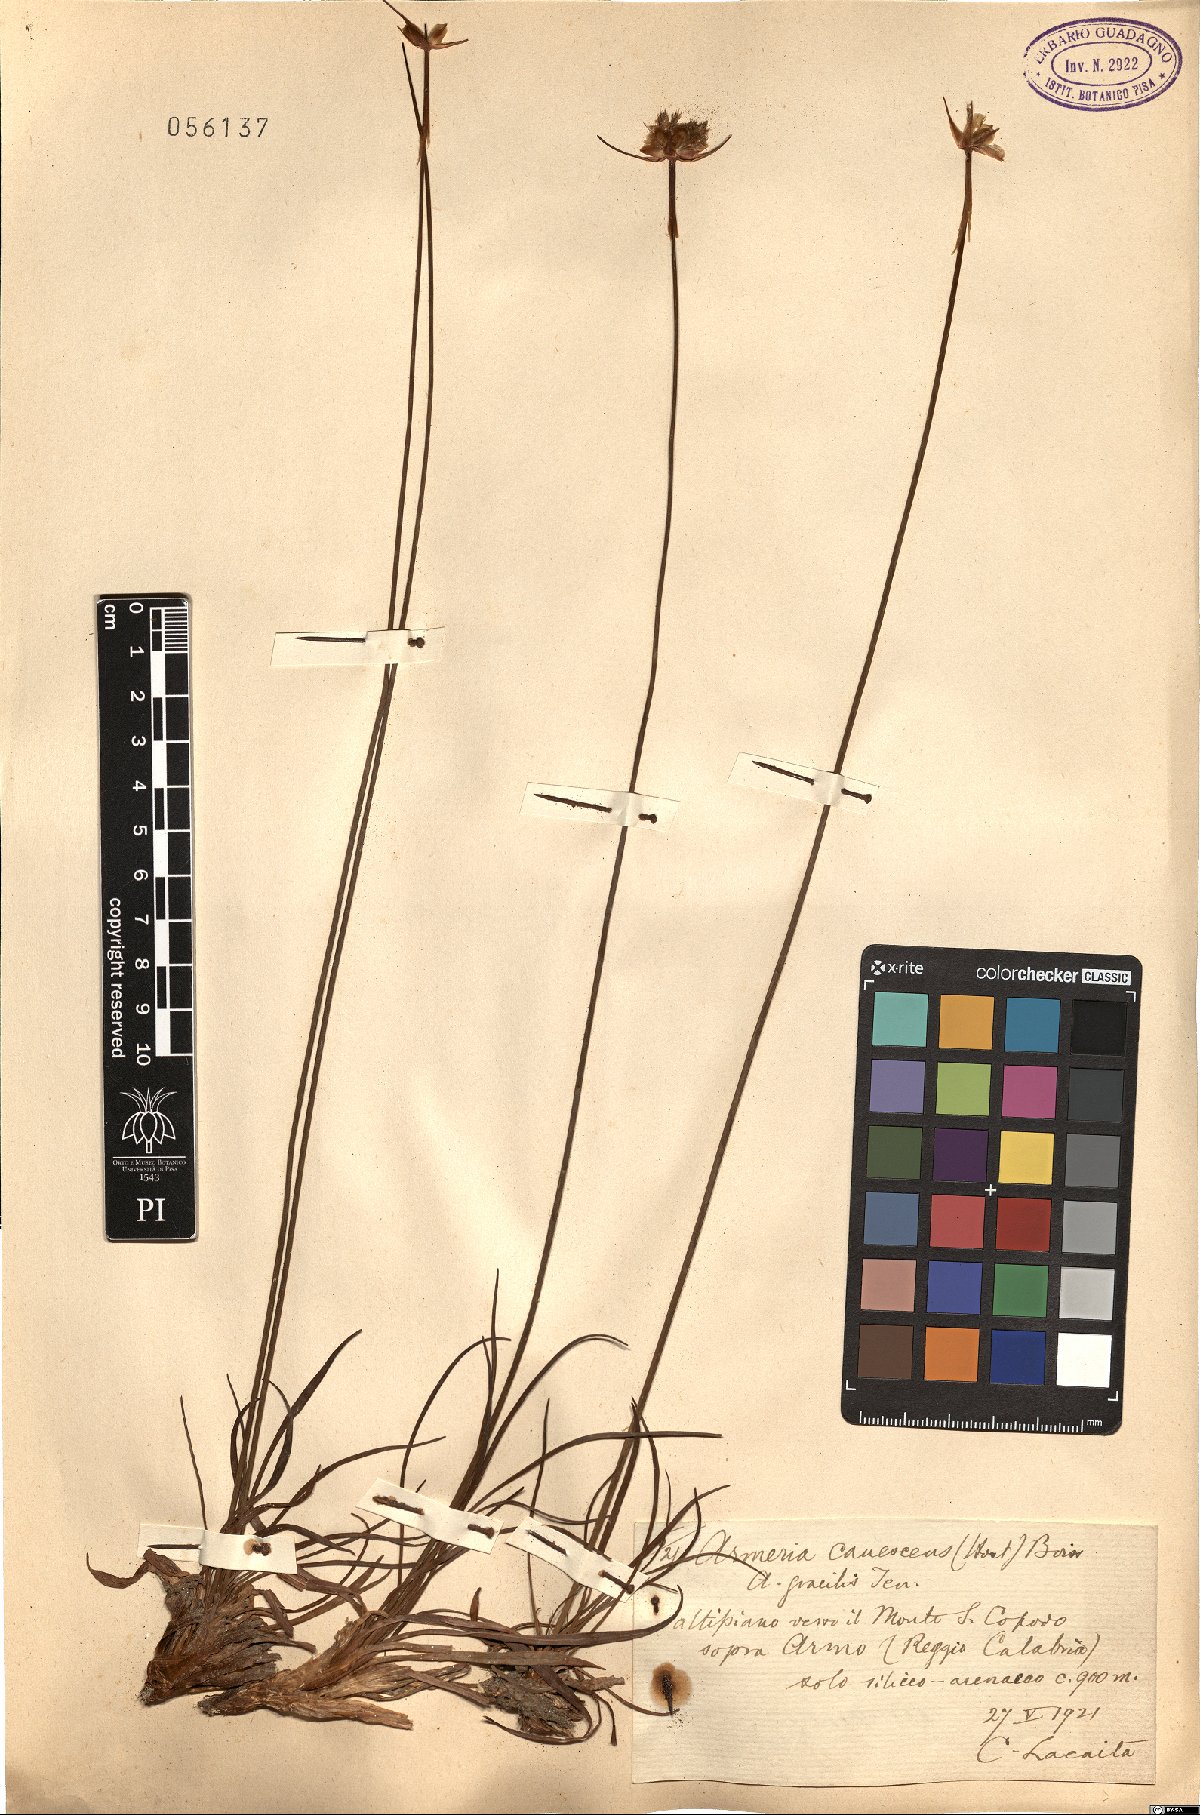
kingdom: Plantae
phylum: Tracheophyta
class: Magnoliopsida
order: Caryophyllales
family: Plumbaginaceae
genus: Armeria
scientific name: Armeria canescens
